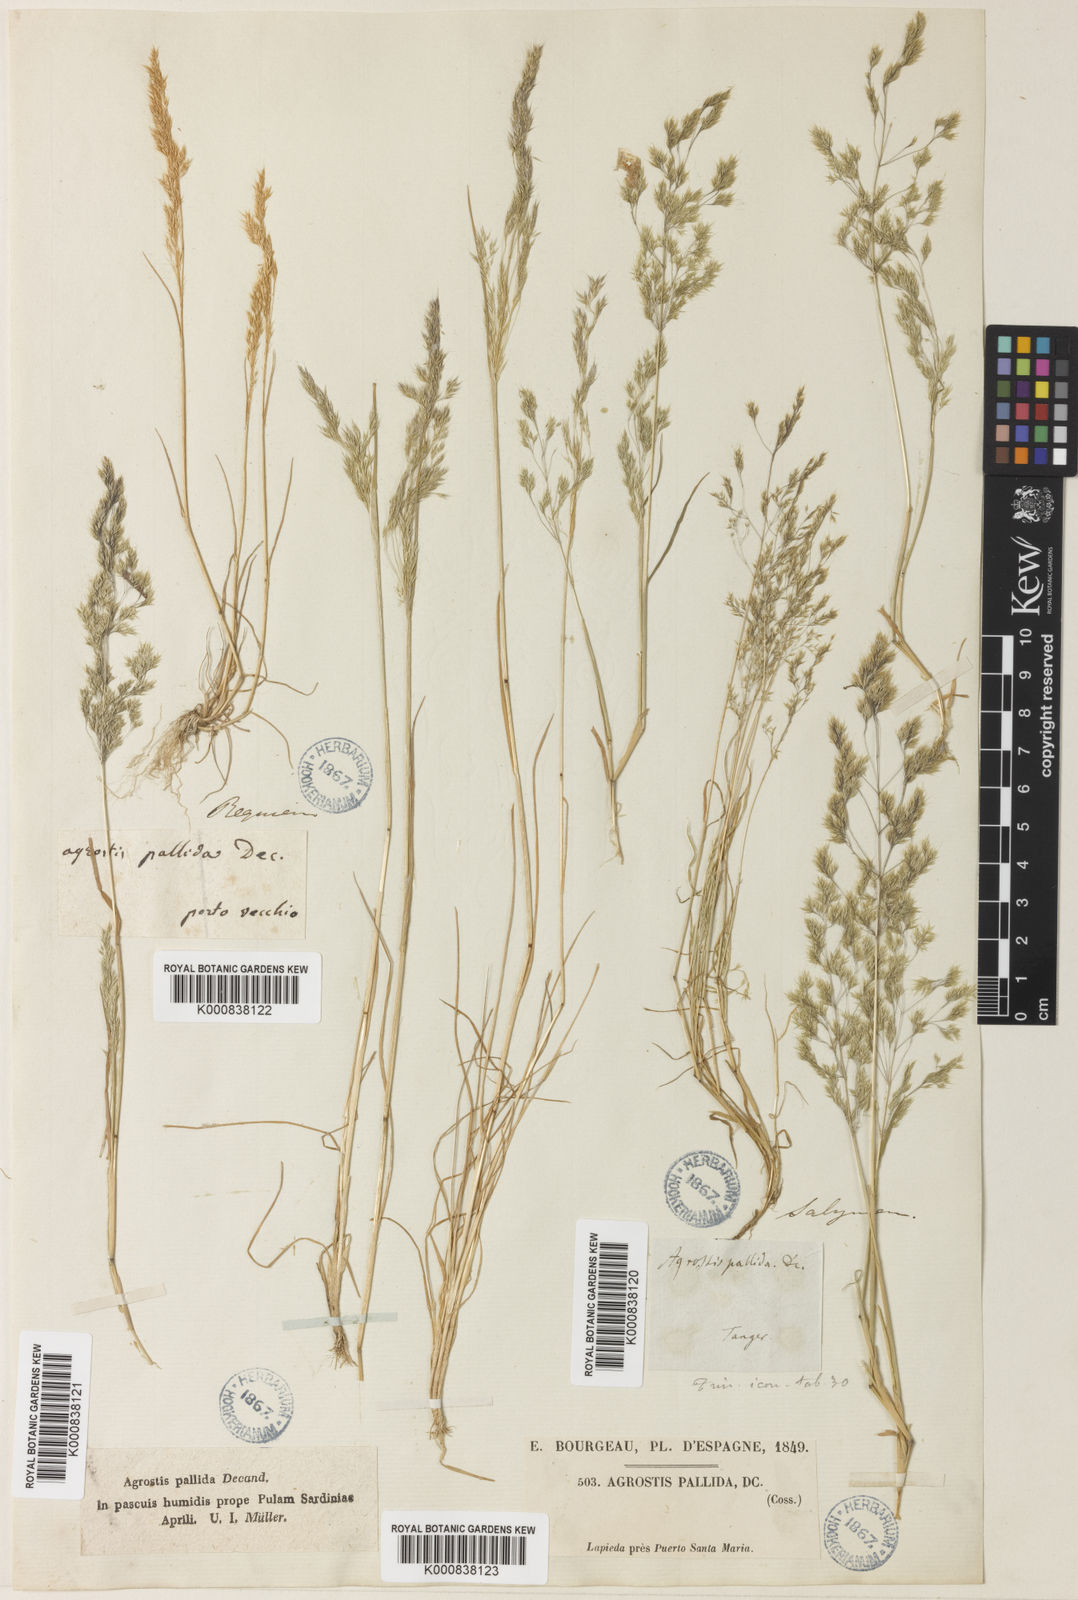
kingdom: Plantae
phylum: Tracheophyta
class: Liliopsida
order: Poales
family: Poaceae
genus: Agrostis
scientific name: Agrostis pourretii
